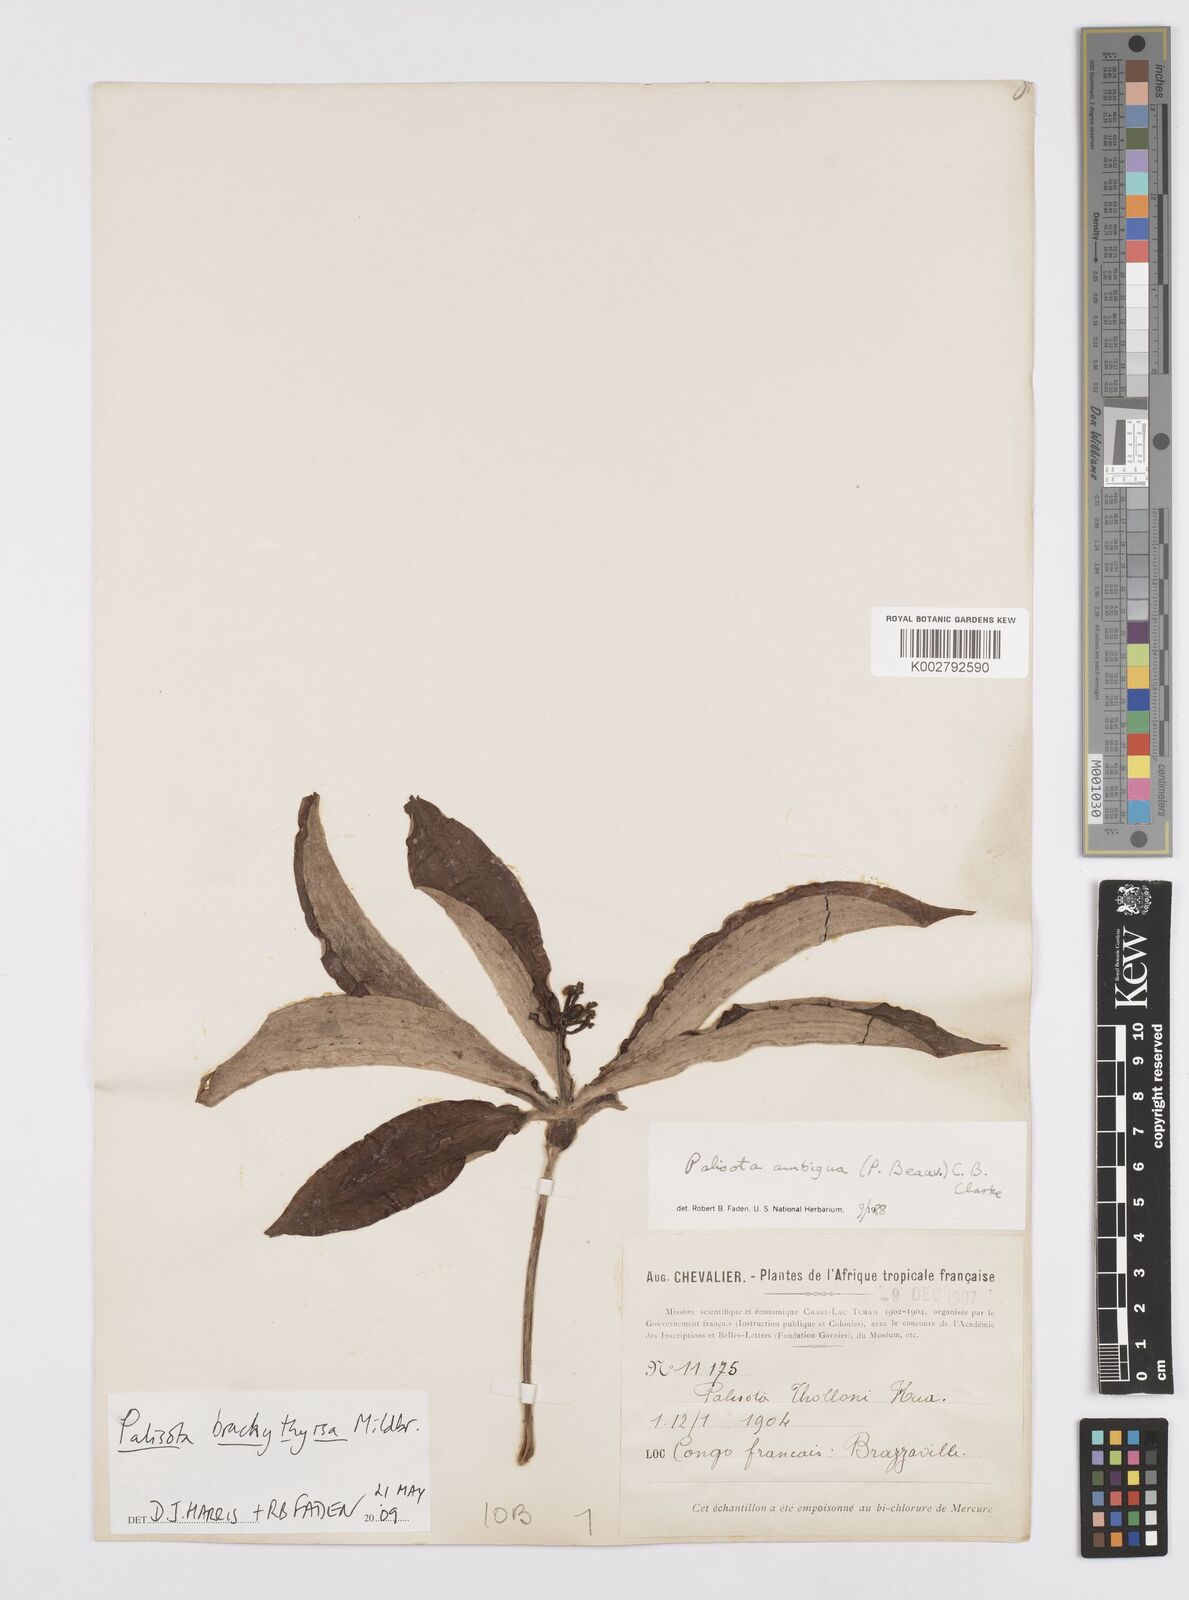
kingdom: Plantae
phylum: Tracheophyta
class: Liliopsida
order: Commelinales
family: Commelinaceae
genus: Palisota
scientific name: Palisota brachythyrsa
